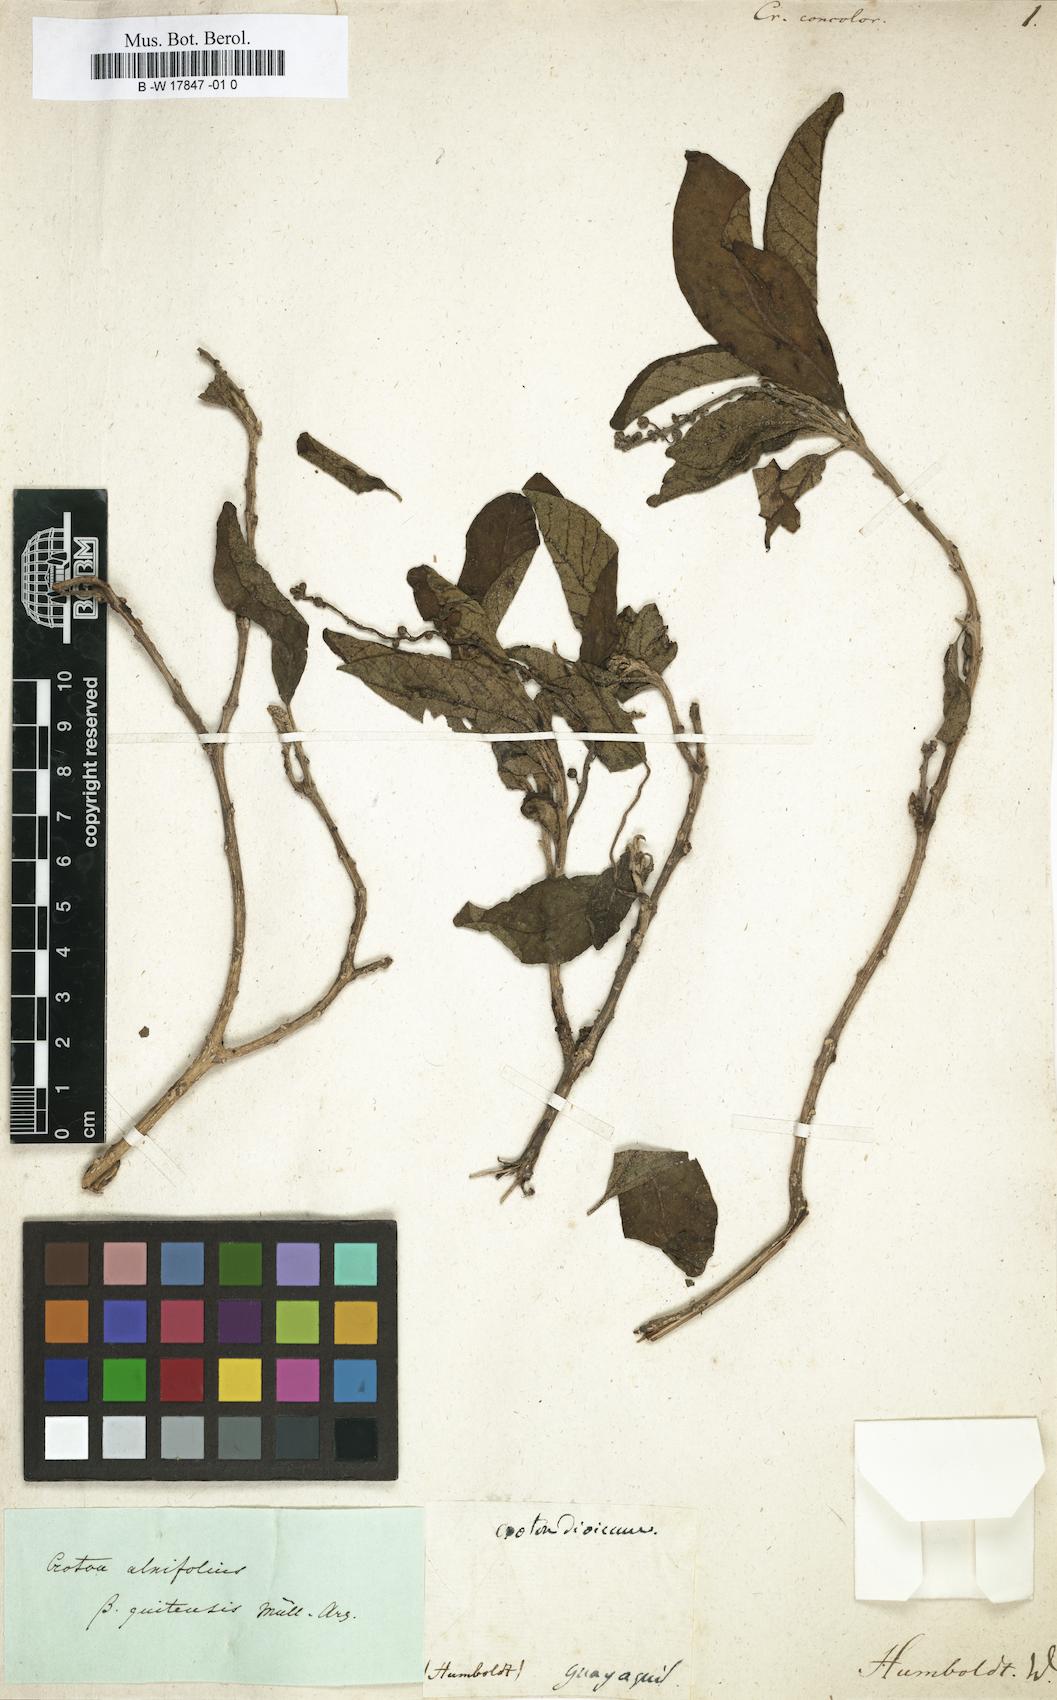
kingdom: Plantae
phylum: Tracheophyta
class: Magnoliopsida
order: Malpighiales
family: Euphorbiaceae
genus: Croton
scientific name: Croton
